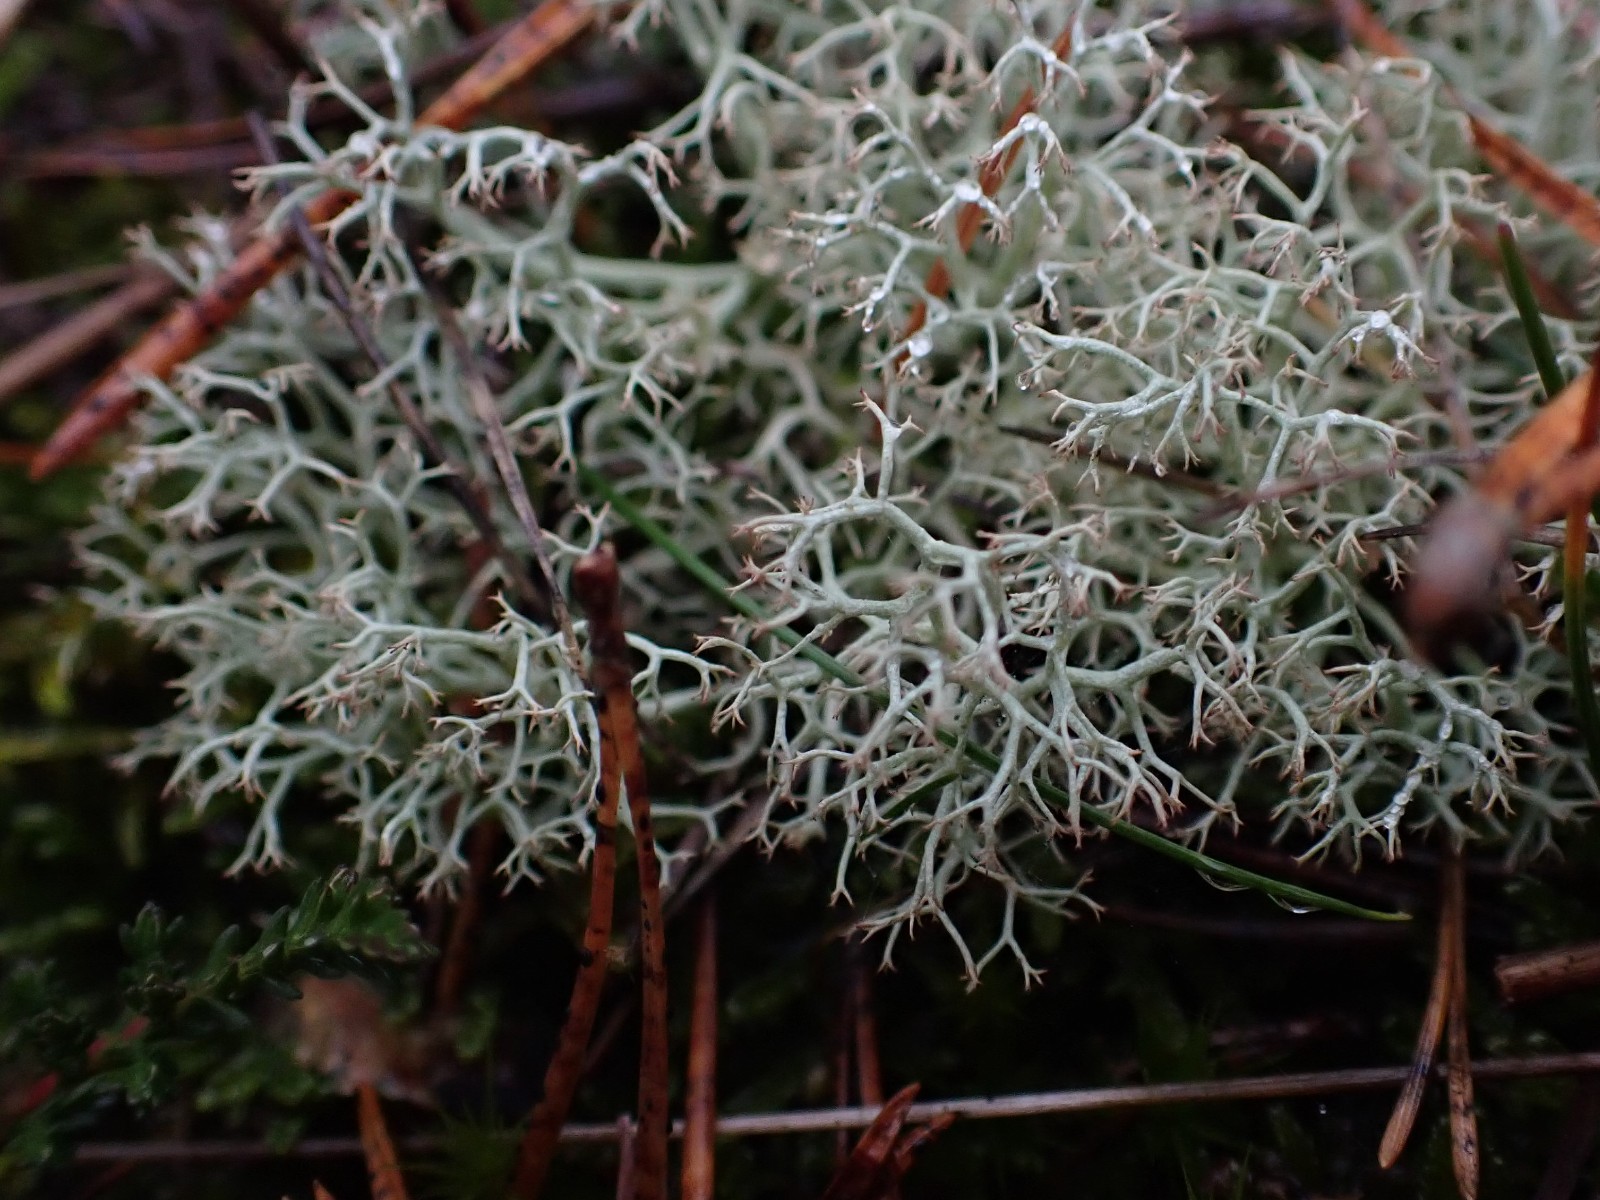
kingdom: Fungi
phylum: Ascomycota
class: Lecanoromycetes
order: Lecanorales
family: Cladoniaceae
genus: Cladonia
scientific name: Cladonia portentosa
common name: hede-rensdyrlav
